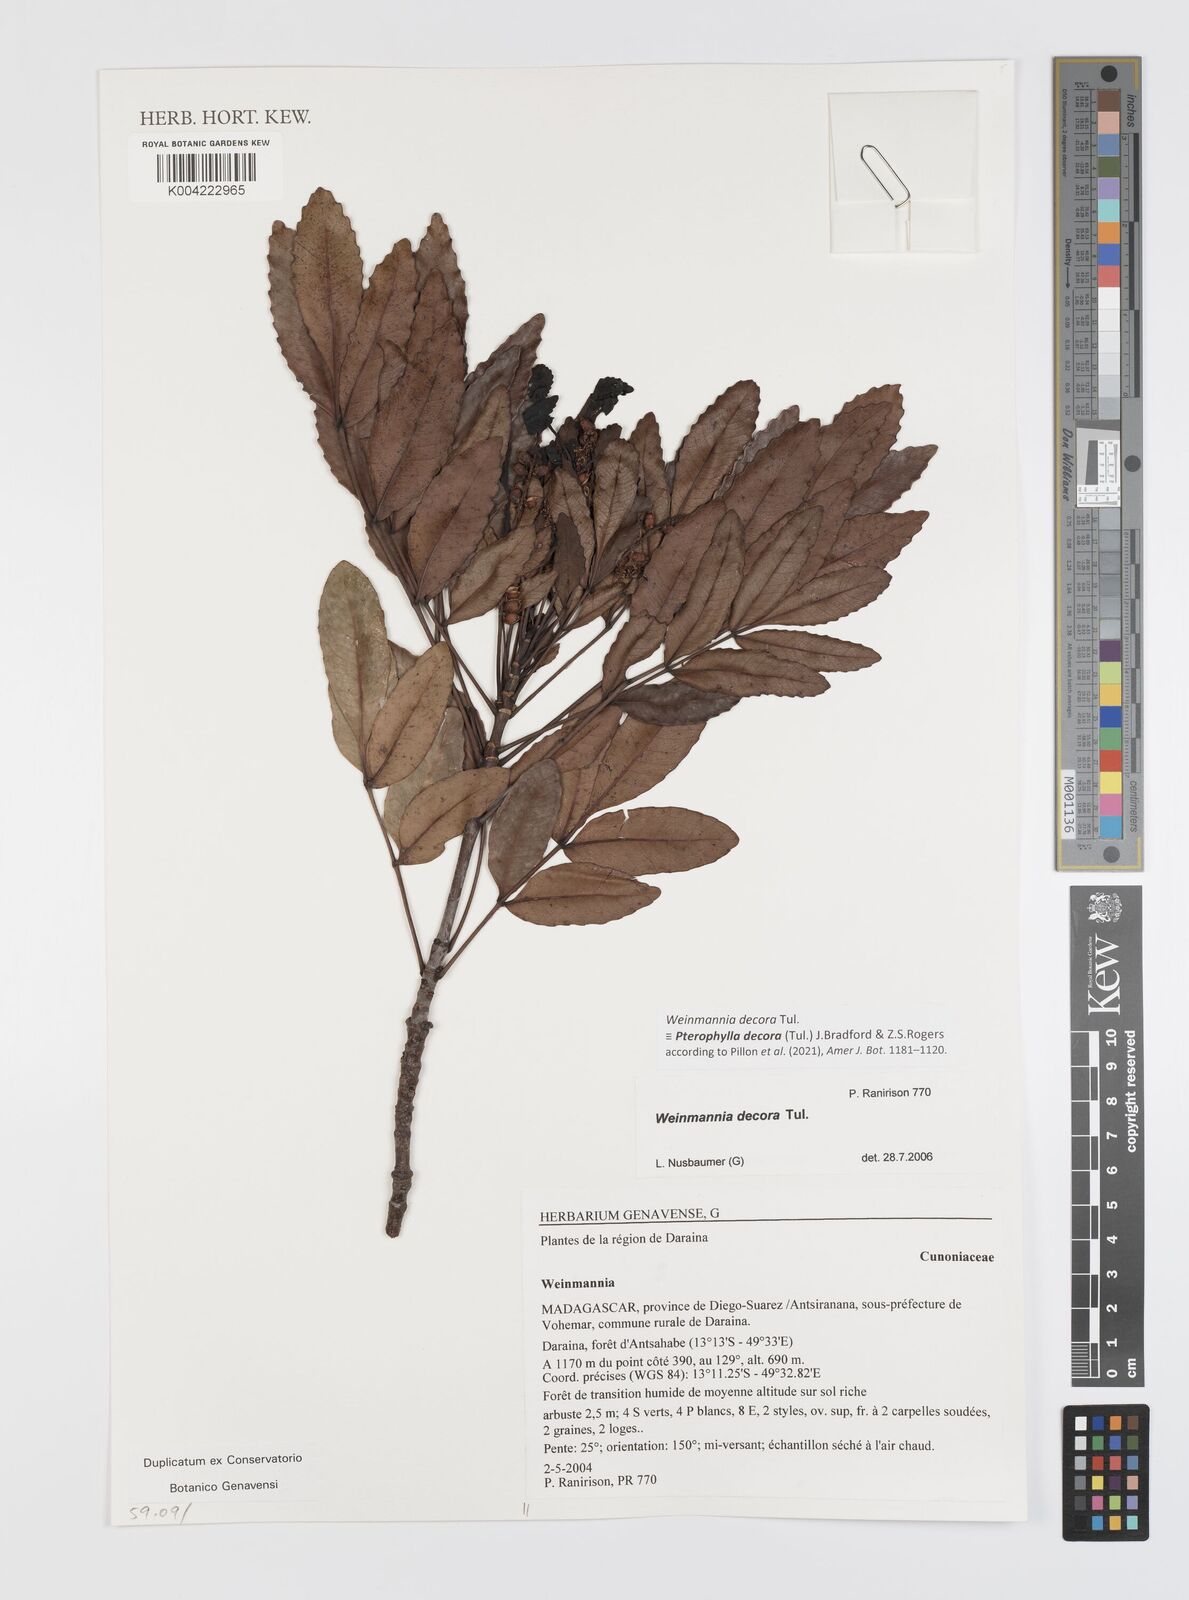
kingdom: Plantae
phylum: Tracheophyta
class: Magnoliopsida
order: Oxalidales
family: Cunoniaceae
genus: Pterophylla
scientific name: Pterophylla decora
